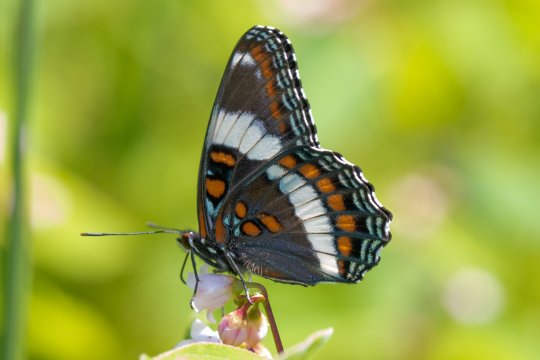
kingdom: Animalia
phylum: Arthropoda
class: Insecta
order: Lepidoptera
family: Nymphalidae
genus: Limenitis
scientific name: Limenitis arthemis
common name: Red-spotted Admiral
